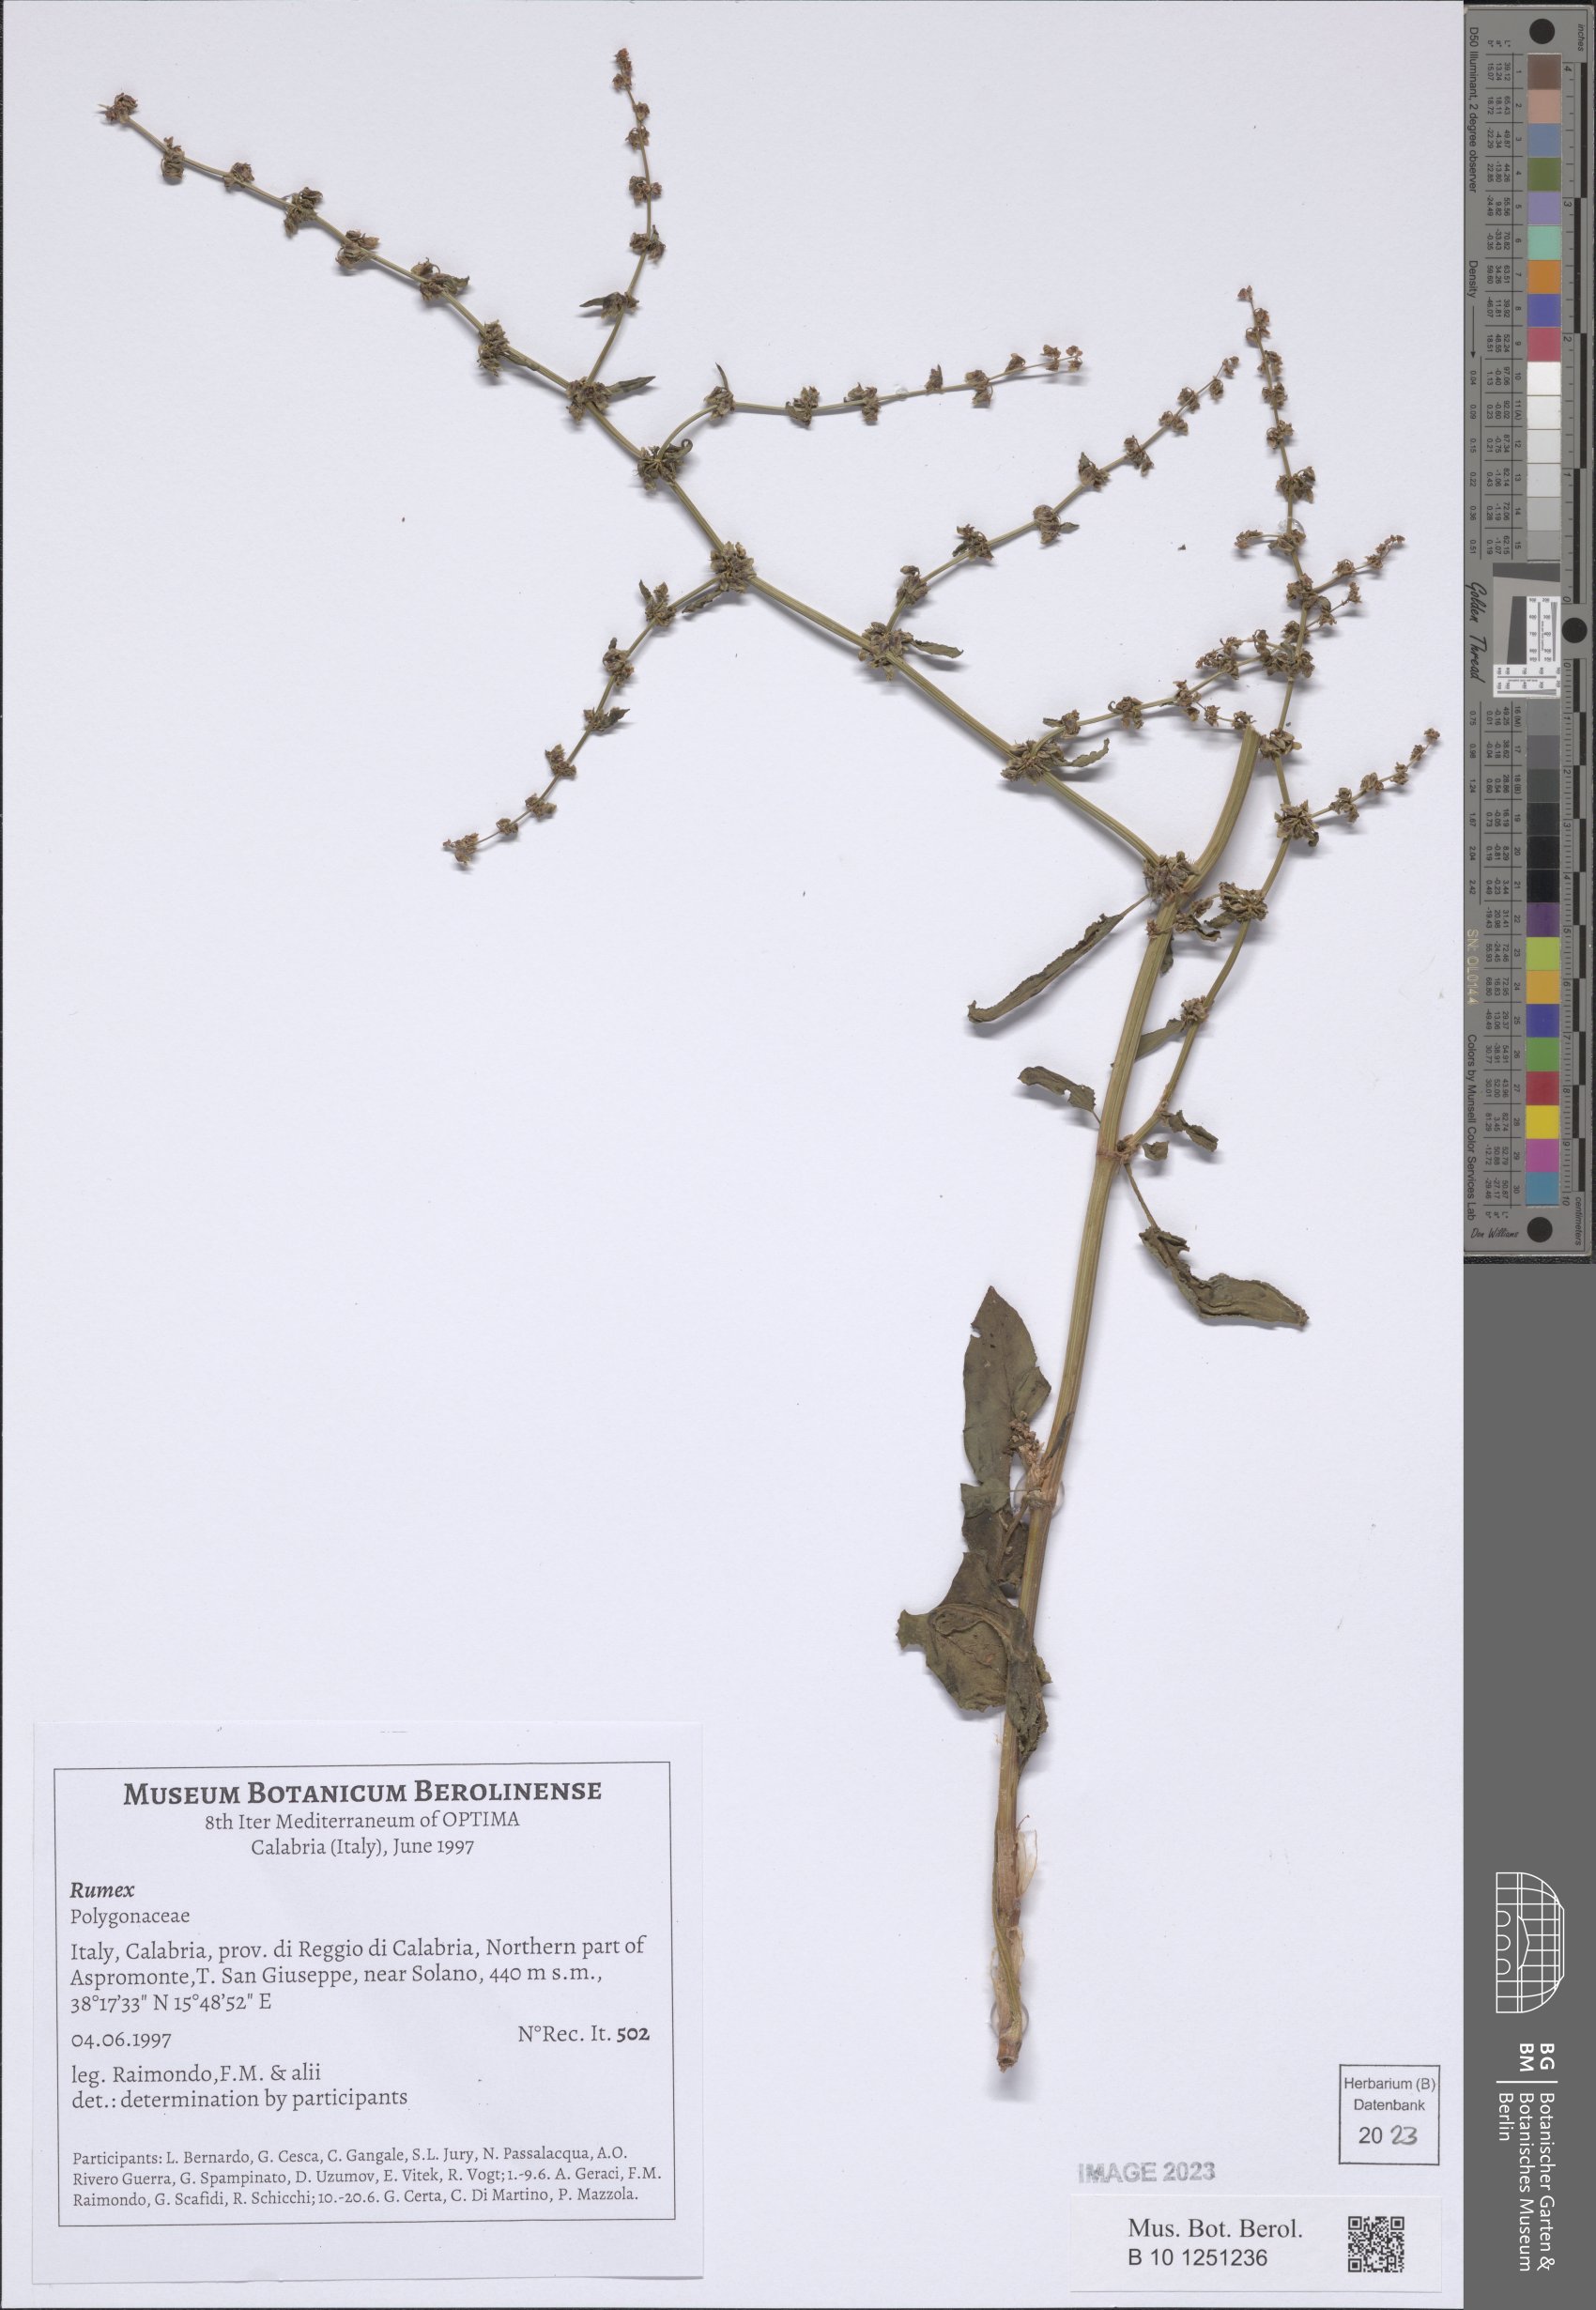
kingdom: Plantae
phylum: Tracheophyta
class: Magnoliopsida
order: Caryophyllales
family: Polygonaceae
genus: Rumex
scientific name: Rumex
